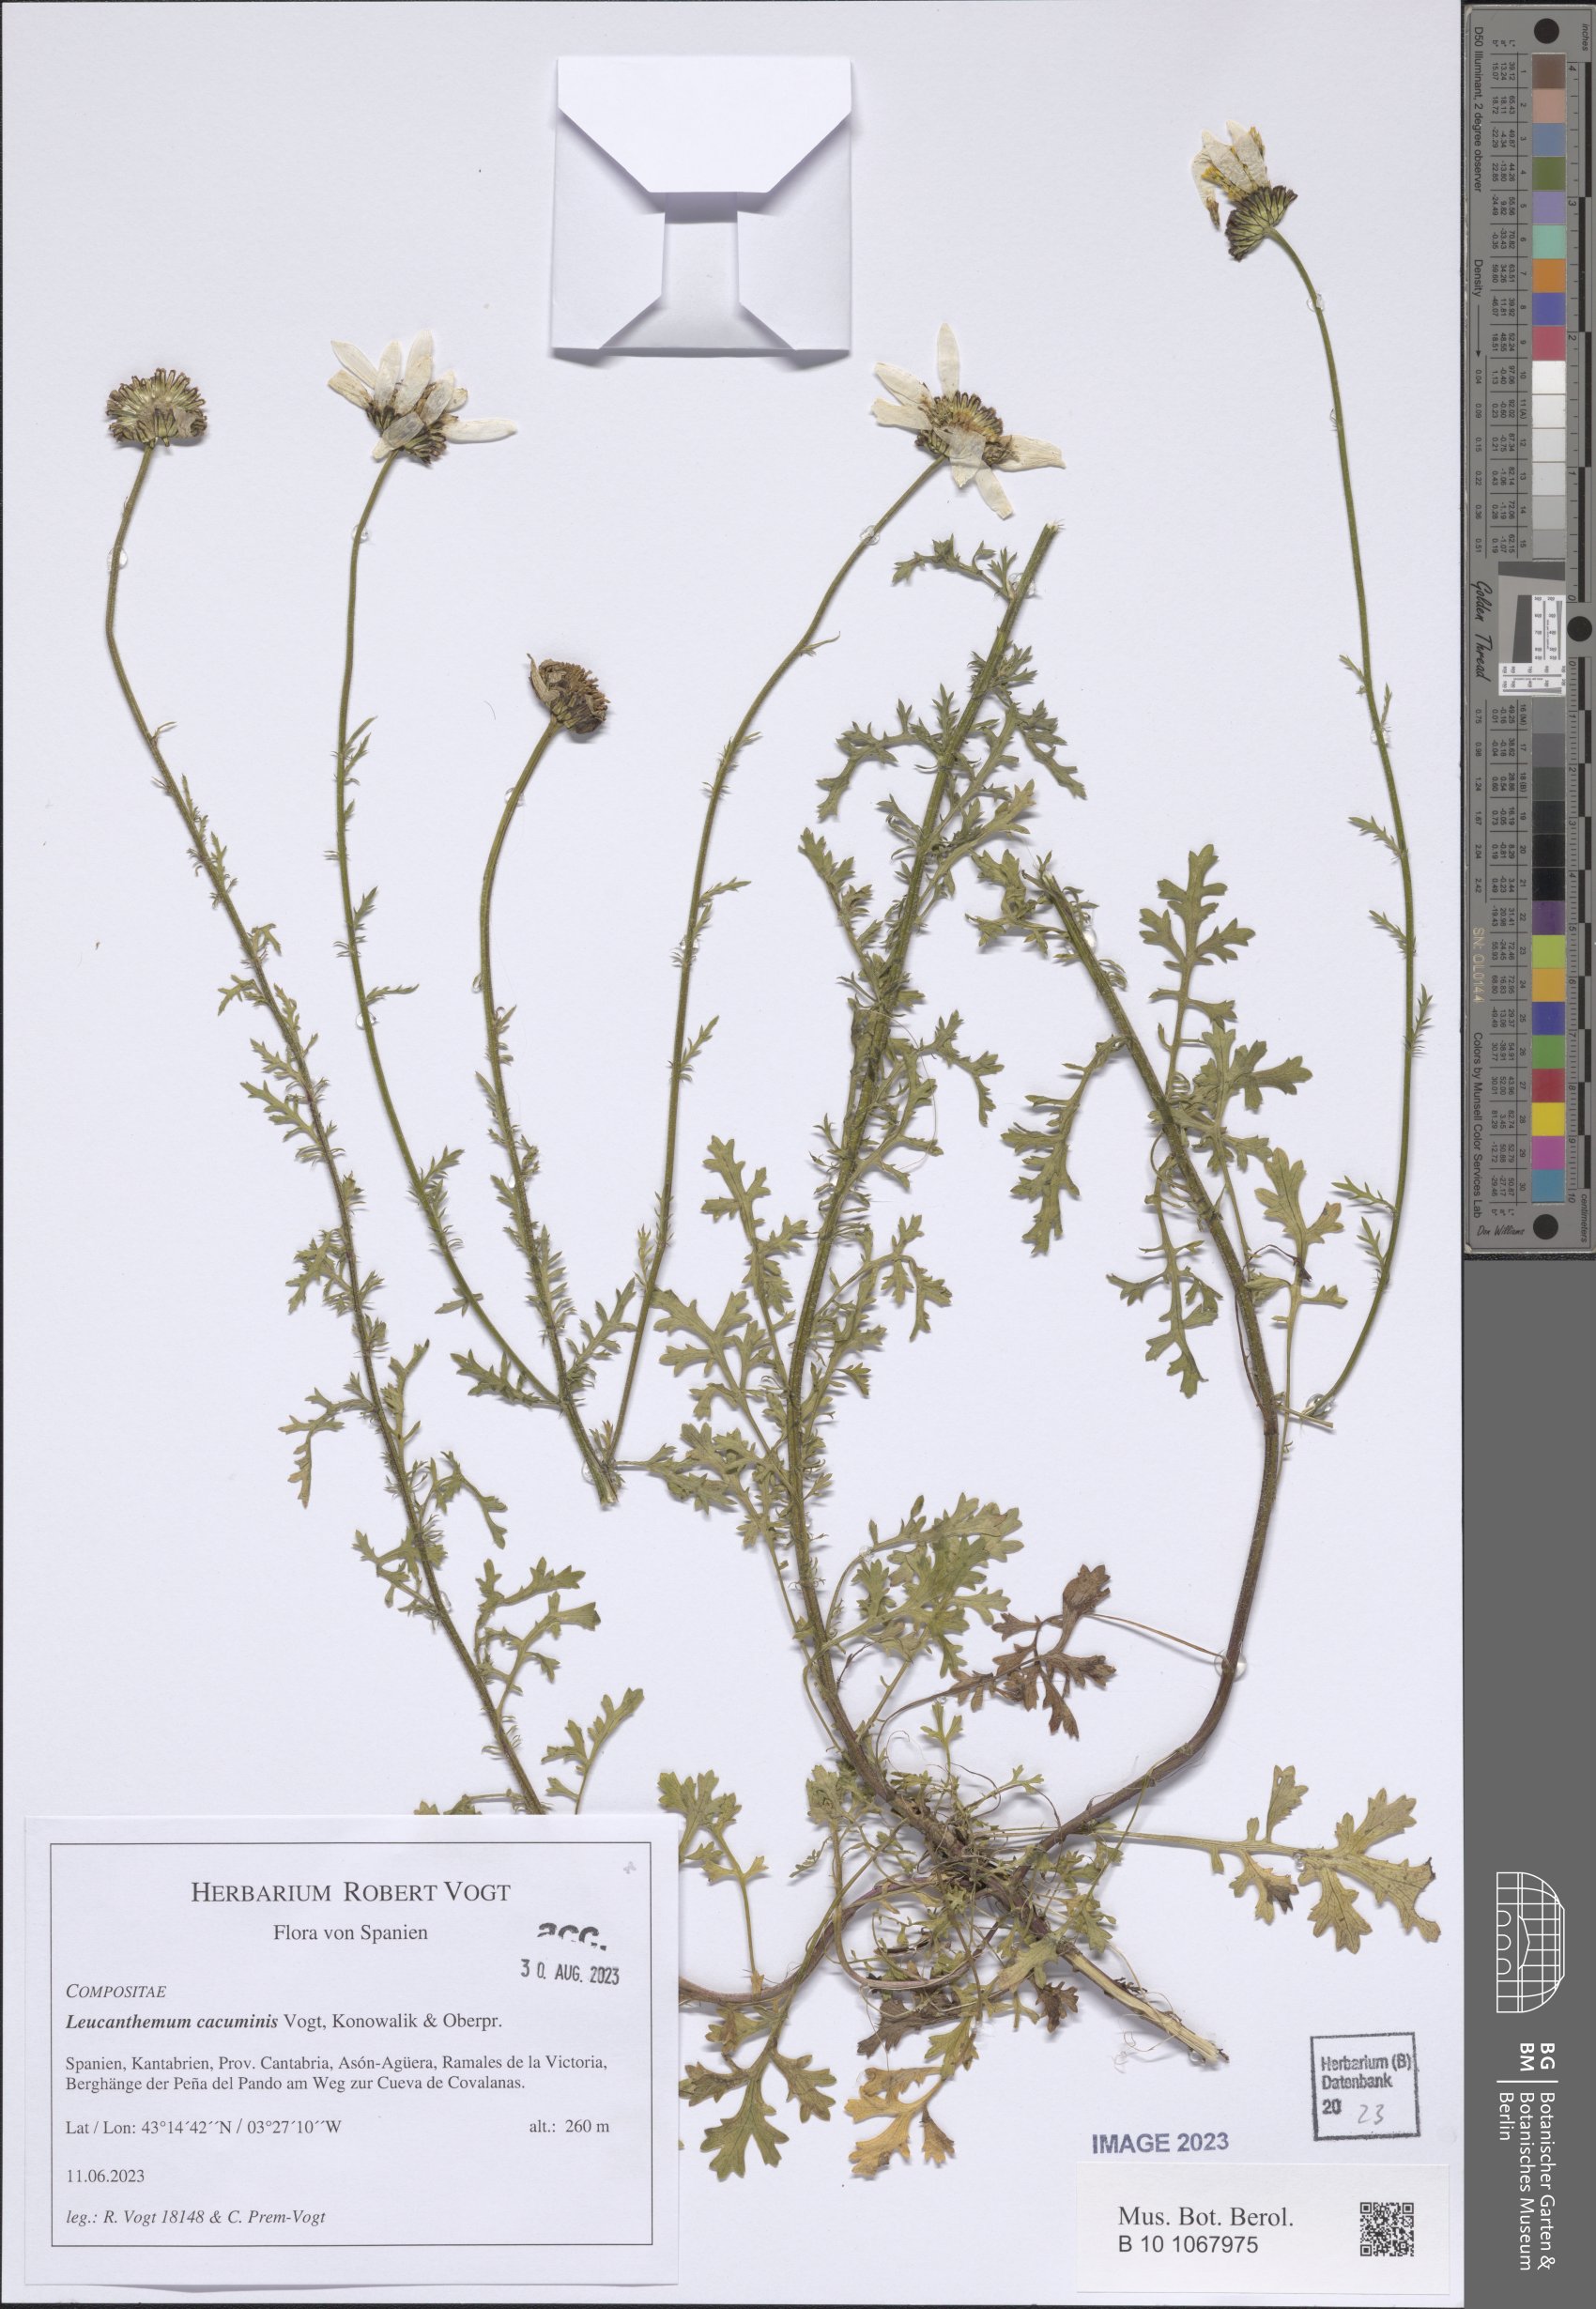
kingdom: Plantae
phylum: Tracheophyta
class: Magnoliopsida
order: Asterales
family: Asteraceae
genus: Leucanthemum
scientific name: Leucanthemum cacuminis
